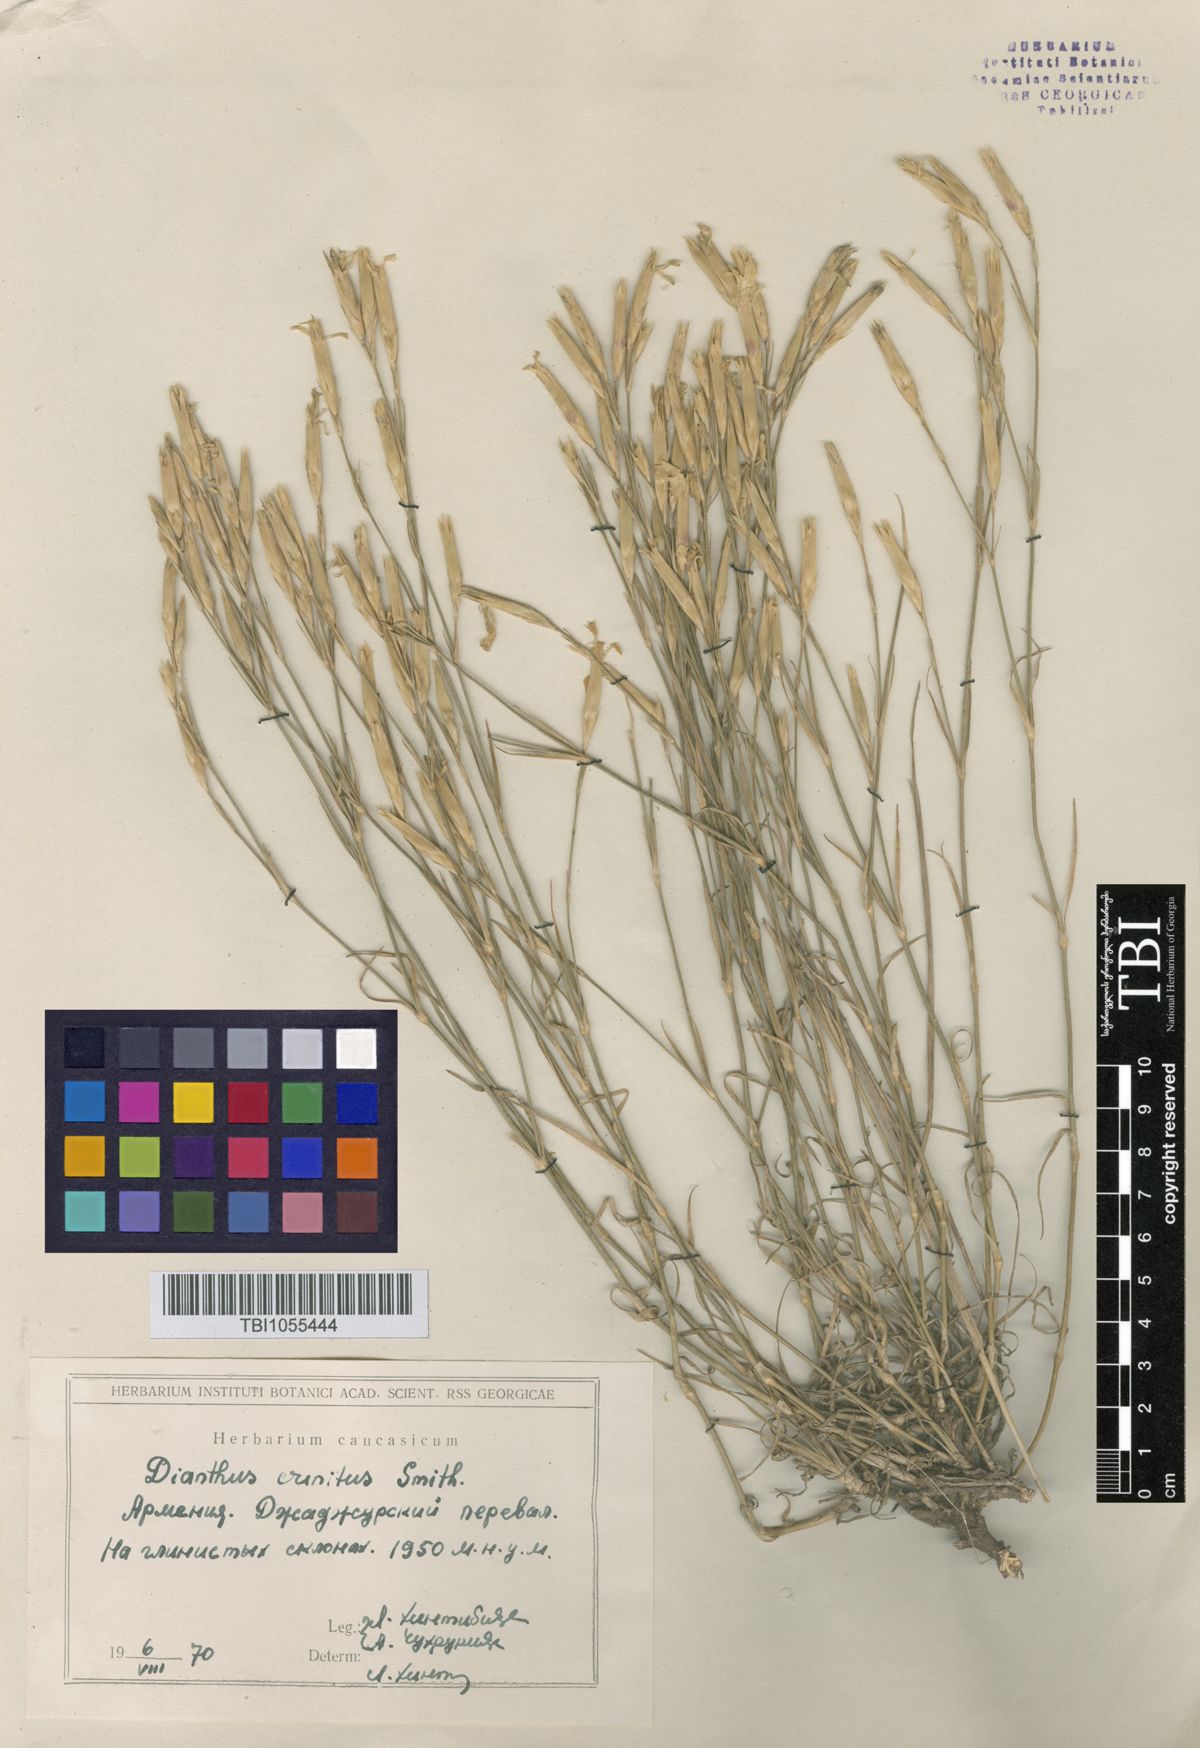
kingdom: Plantae
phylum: Tracheophyta
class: Magnoliopsida
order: Caryophyllales
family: Caryophyllaceae
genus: Dianthus
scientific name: Dianthus crinitus
